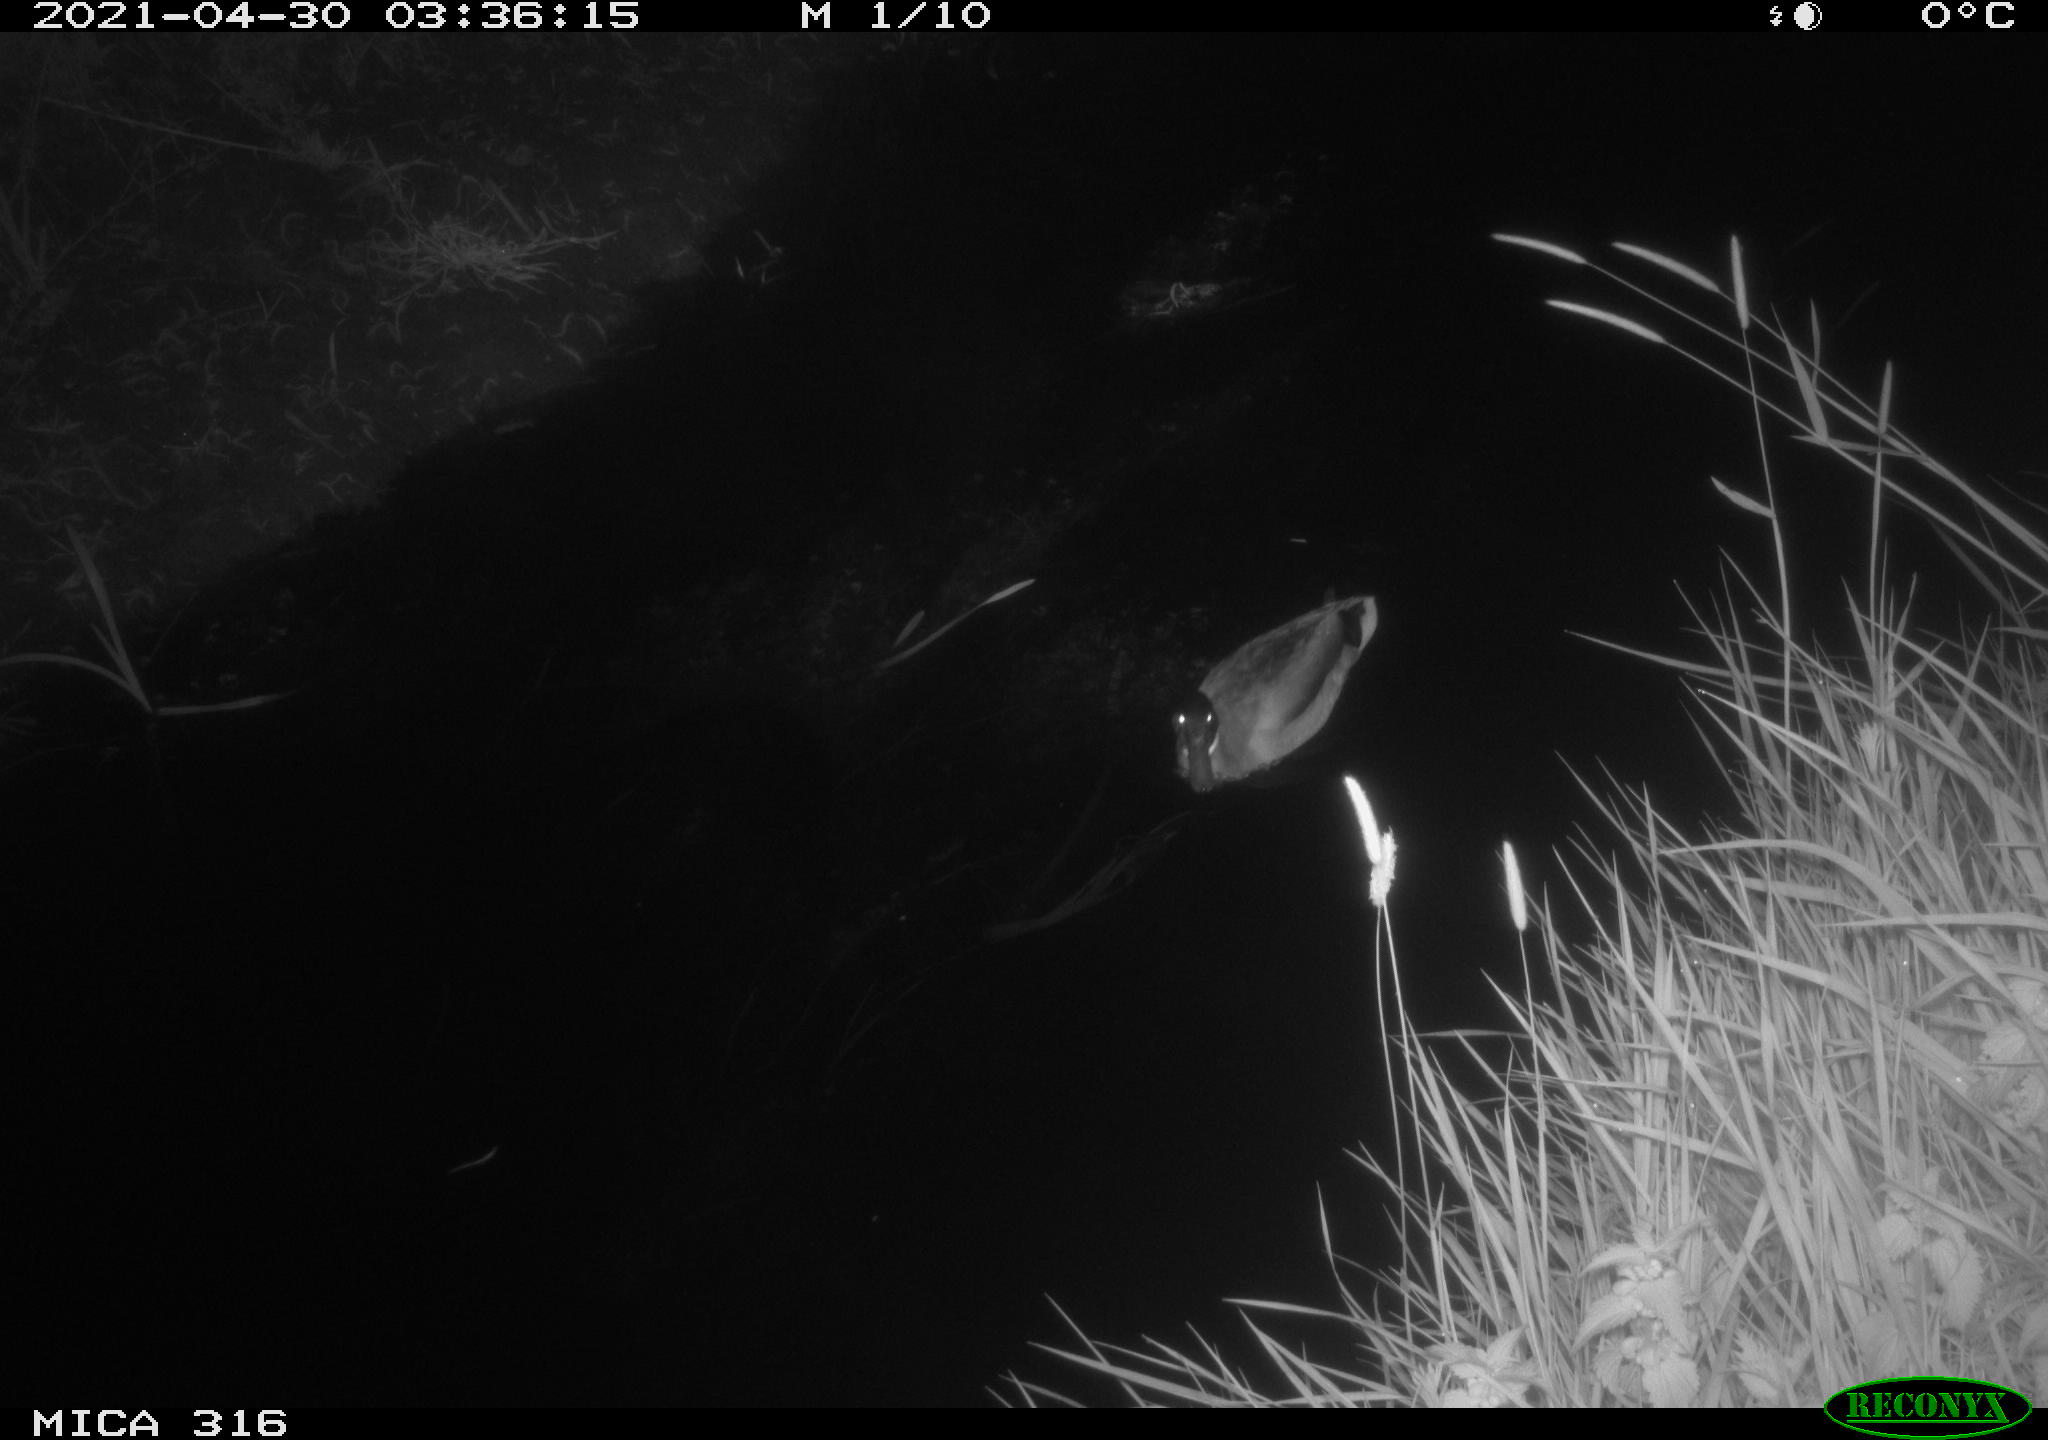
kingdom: Animalia
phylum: Chordata
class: Aves
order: Anseriformes
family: Anatidae
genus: Anas
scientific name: Anas platyrhynchos
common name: Mallard
